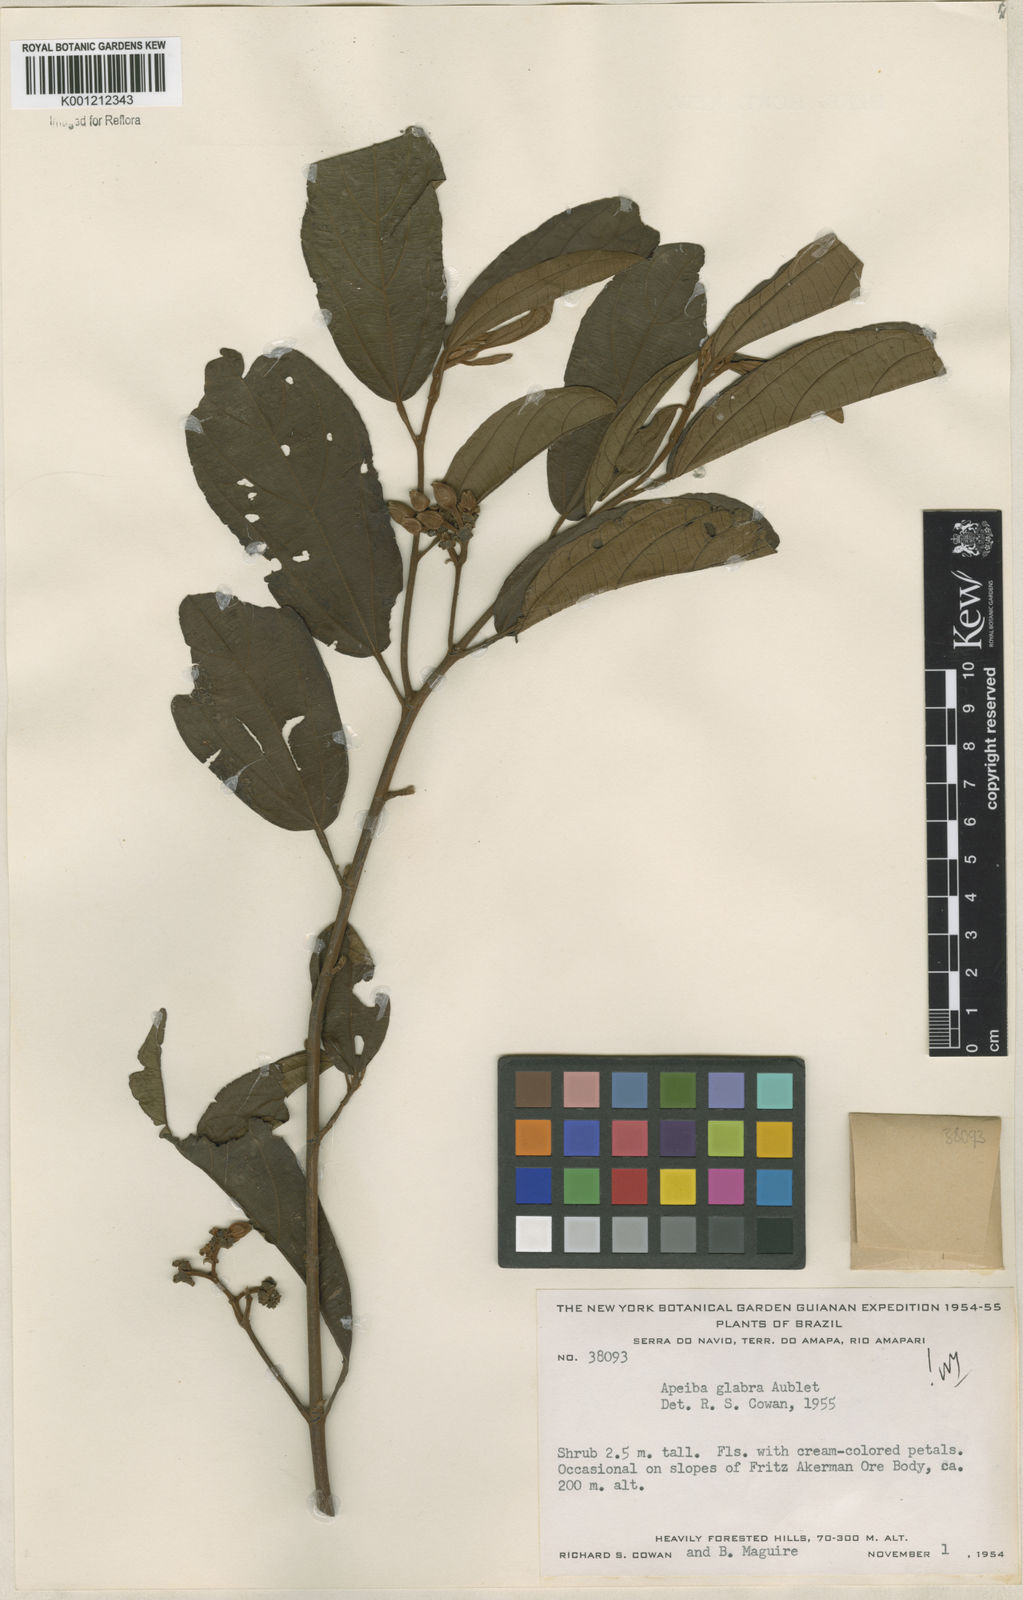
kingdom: Plantae
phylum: Tracheophyta
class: Magnoliopsida
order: Malvales
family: Malvaceae
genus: Apeiba
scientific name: Apeiba glabra
